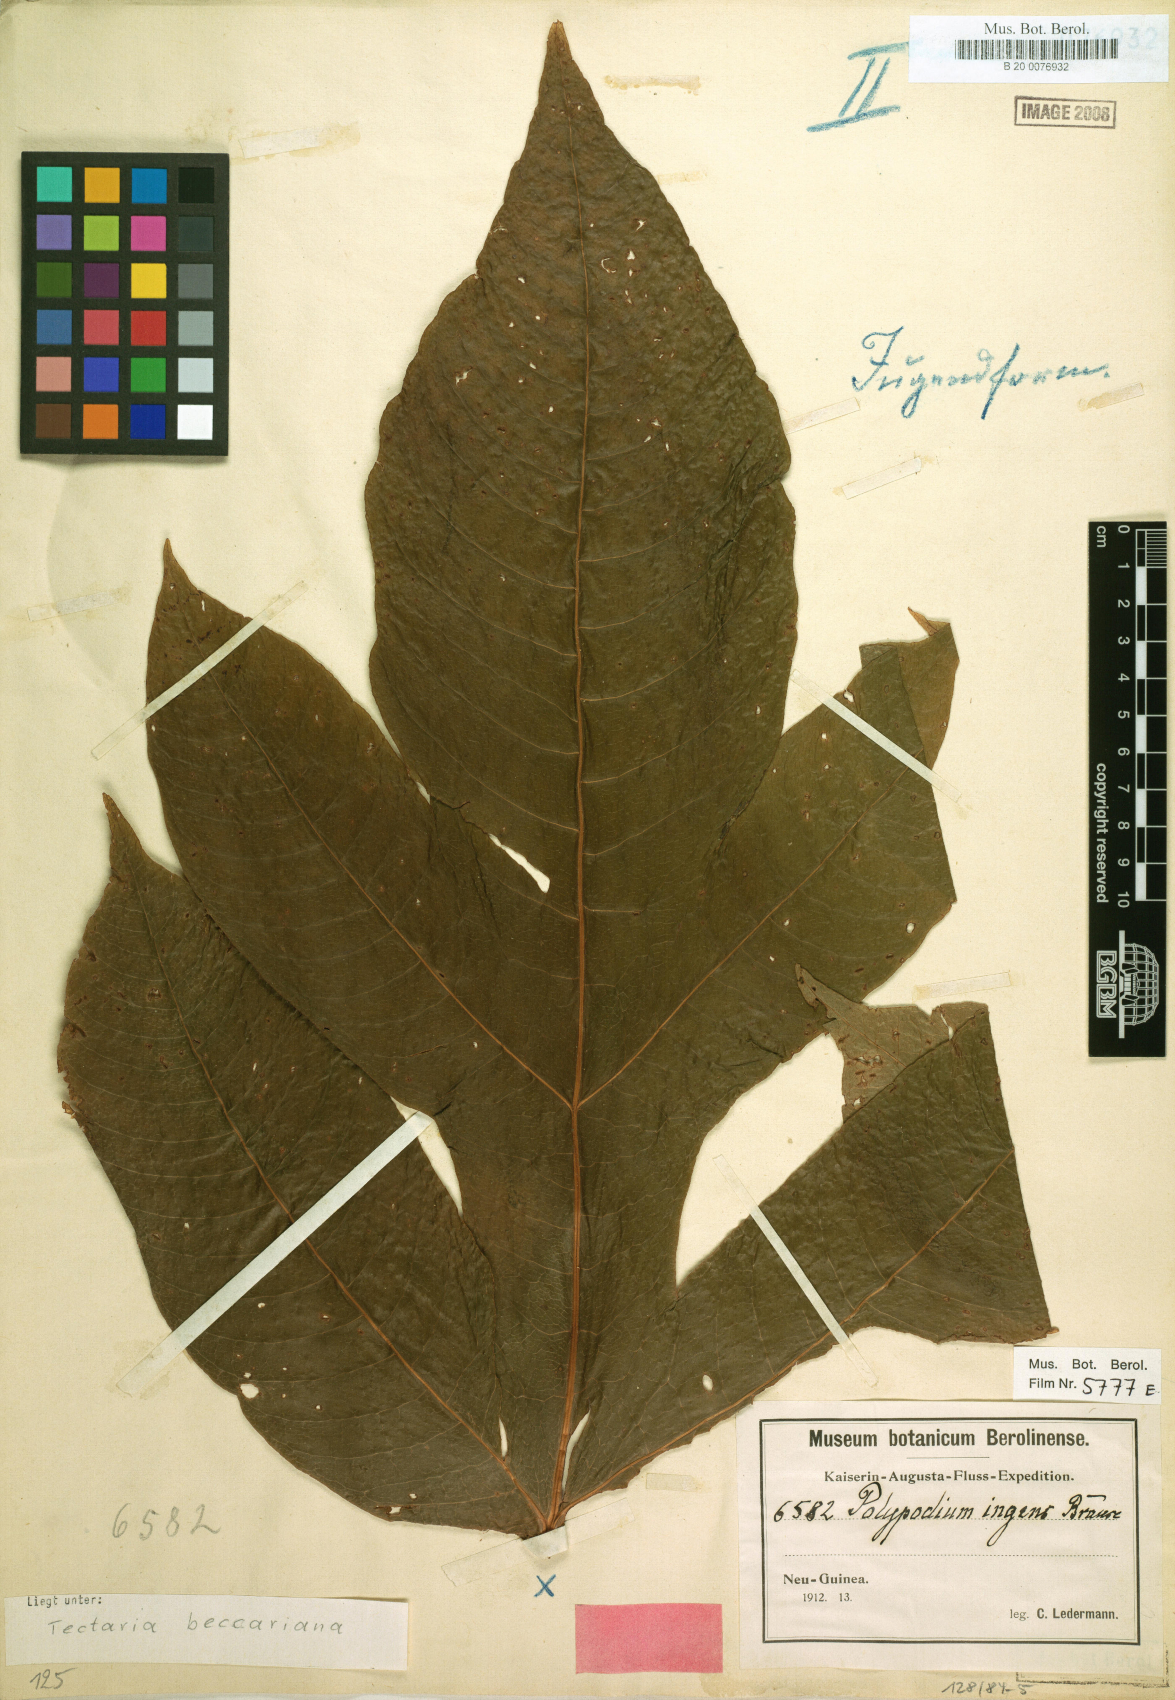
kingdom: Plantae
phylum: Tracheophyta
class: Polypodiopsida
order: Polypodiales
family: Tectariaceae
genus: Tectaria
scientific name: Tectaria beccariana
